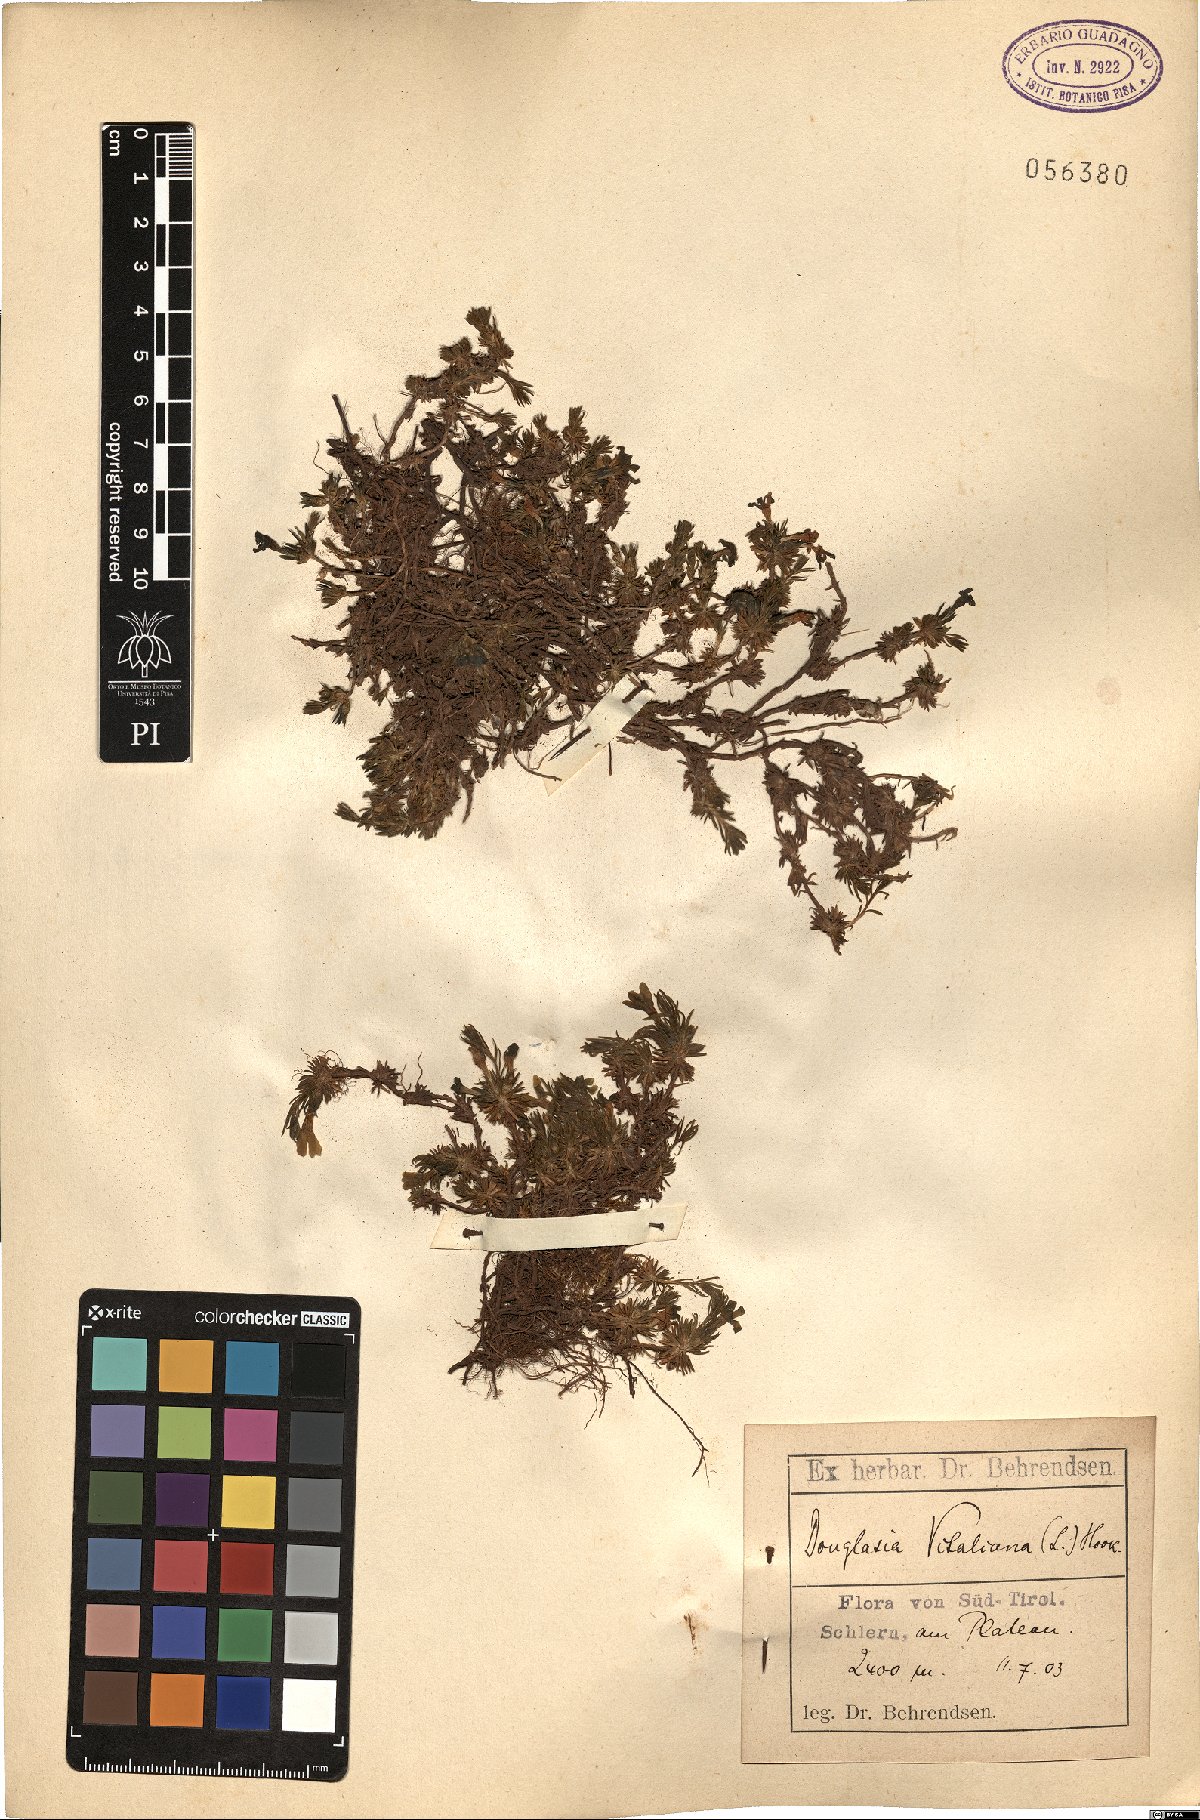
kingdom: Plantae
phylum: Tracheophyta
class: Magnoliopsida
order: Ericales
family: Primulaceae
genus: Androsace
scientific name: Androsace Douglasia vitaliana
